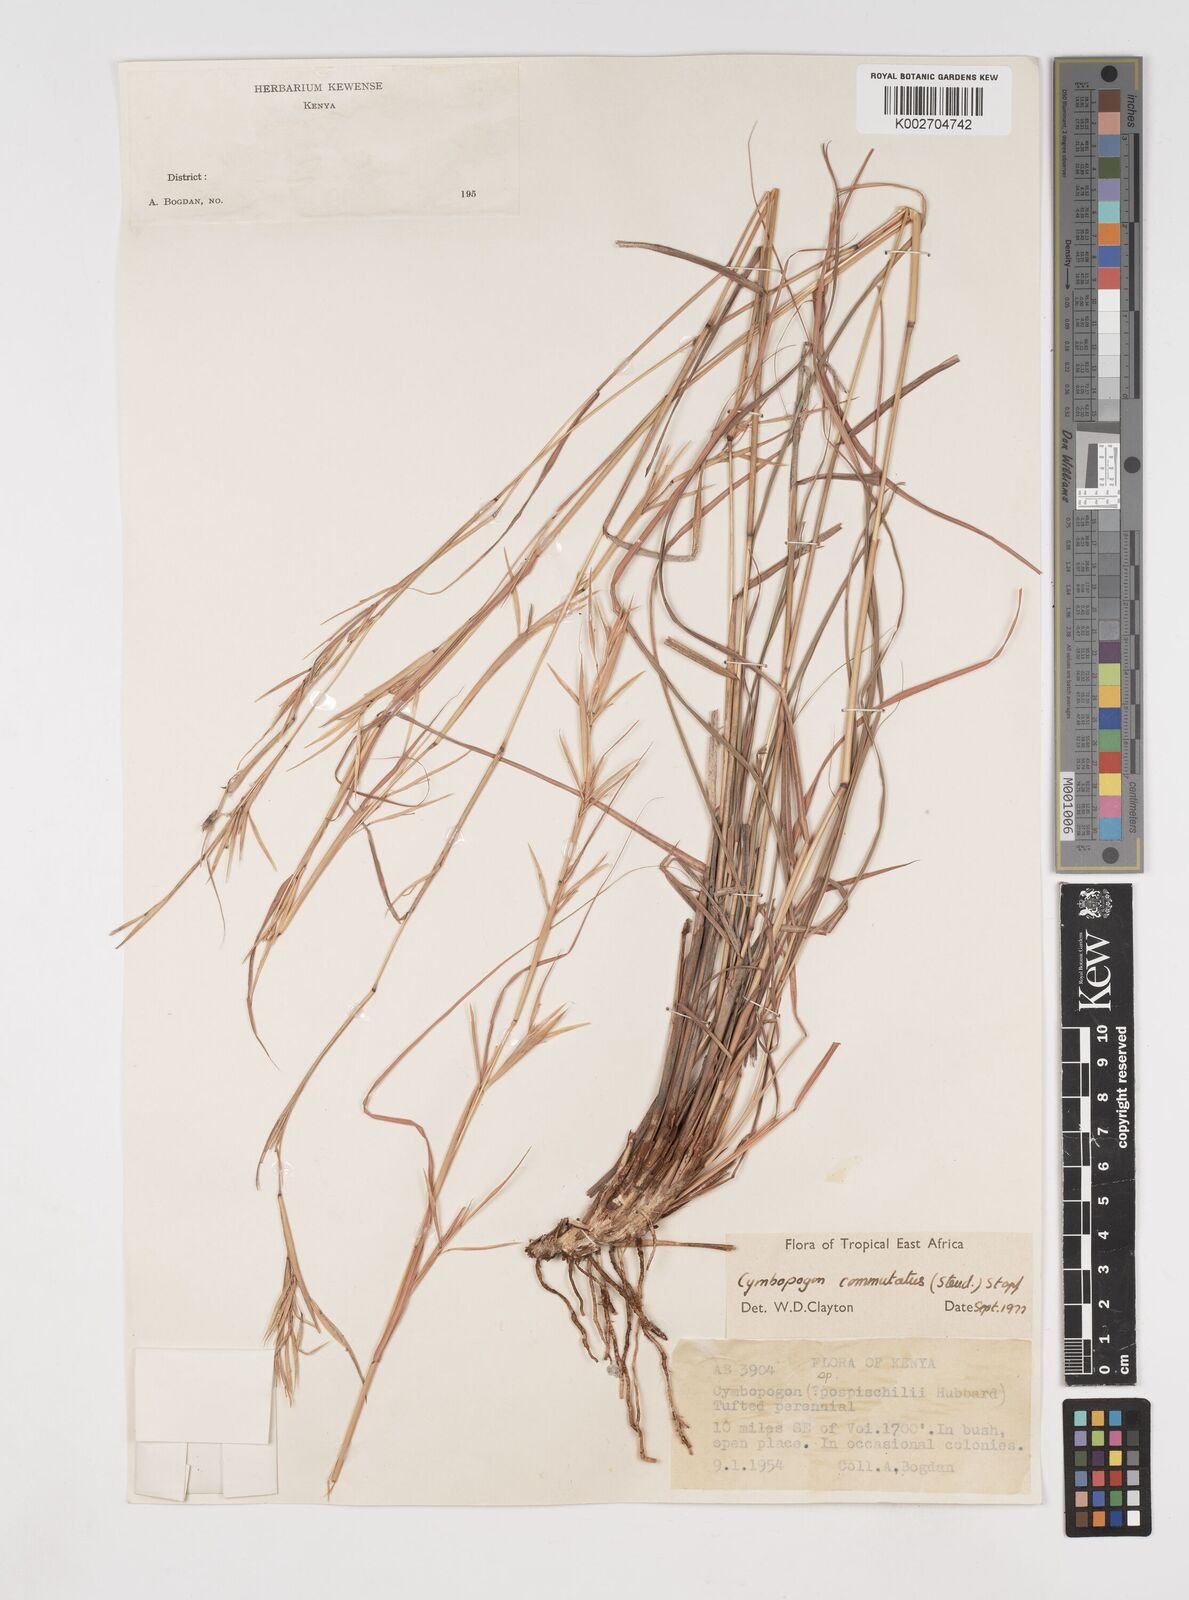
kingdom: Plantae
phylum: Tracheophyta
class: Liliopsida
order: Poales
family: Poaceae
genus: Cymbopogon
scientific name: Cymbopogon commutatus
